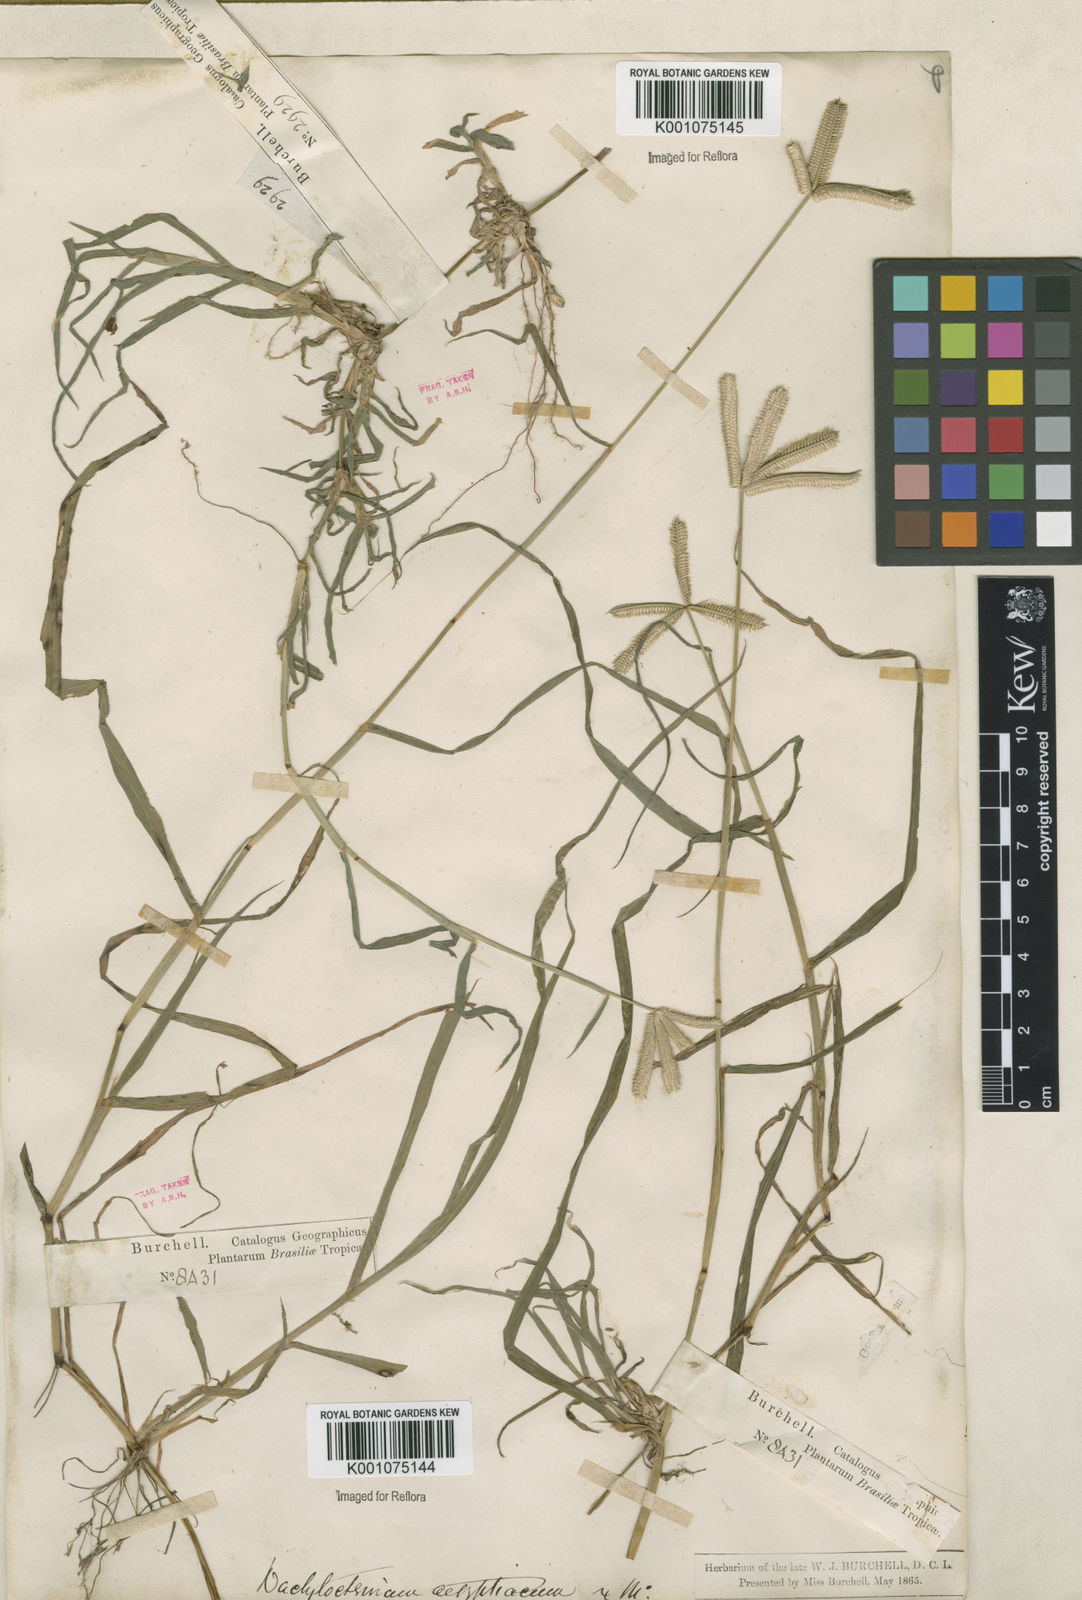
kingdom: Plantae
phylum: Tracheophyta
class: Liliopsida
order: Poales
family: Poaceae
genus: Dactyloctenium
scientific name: Dactyloctenium aegyptium
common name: Egyptian grass
